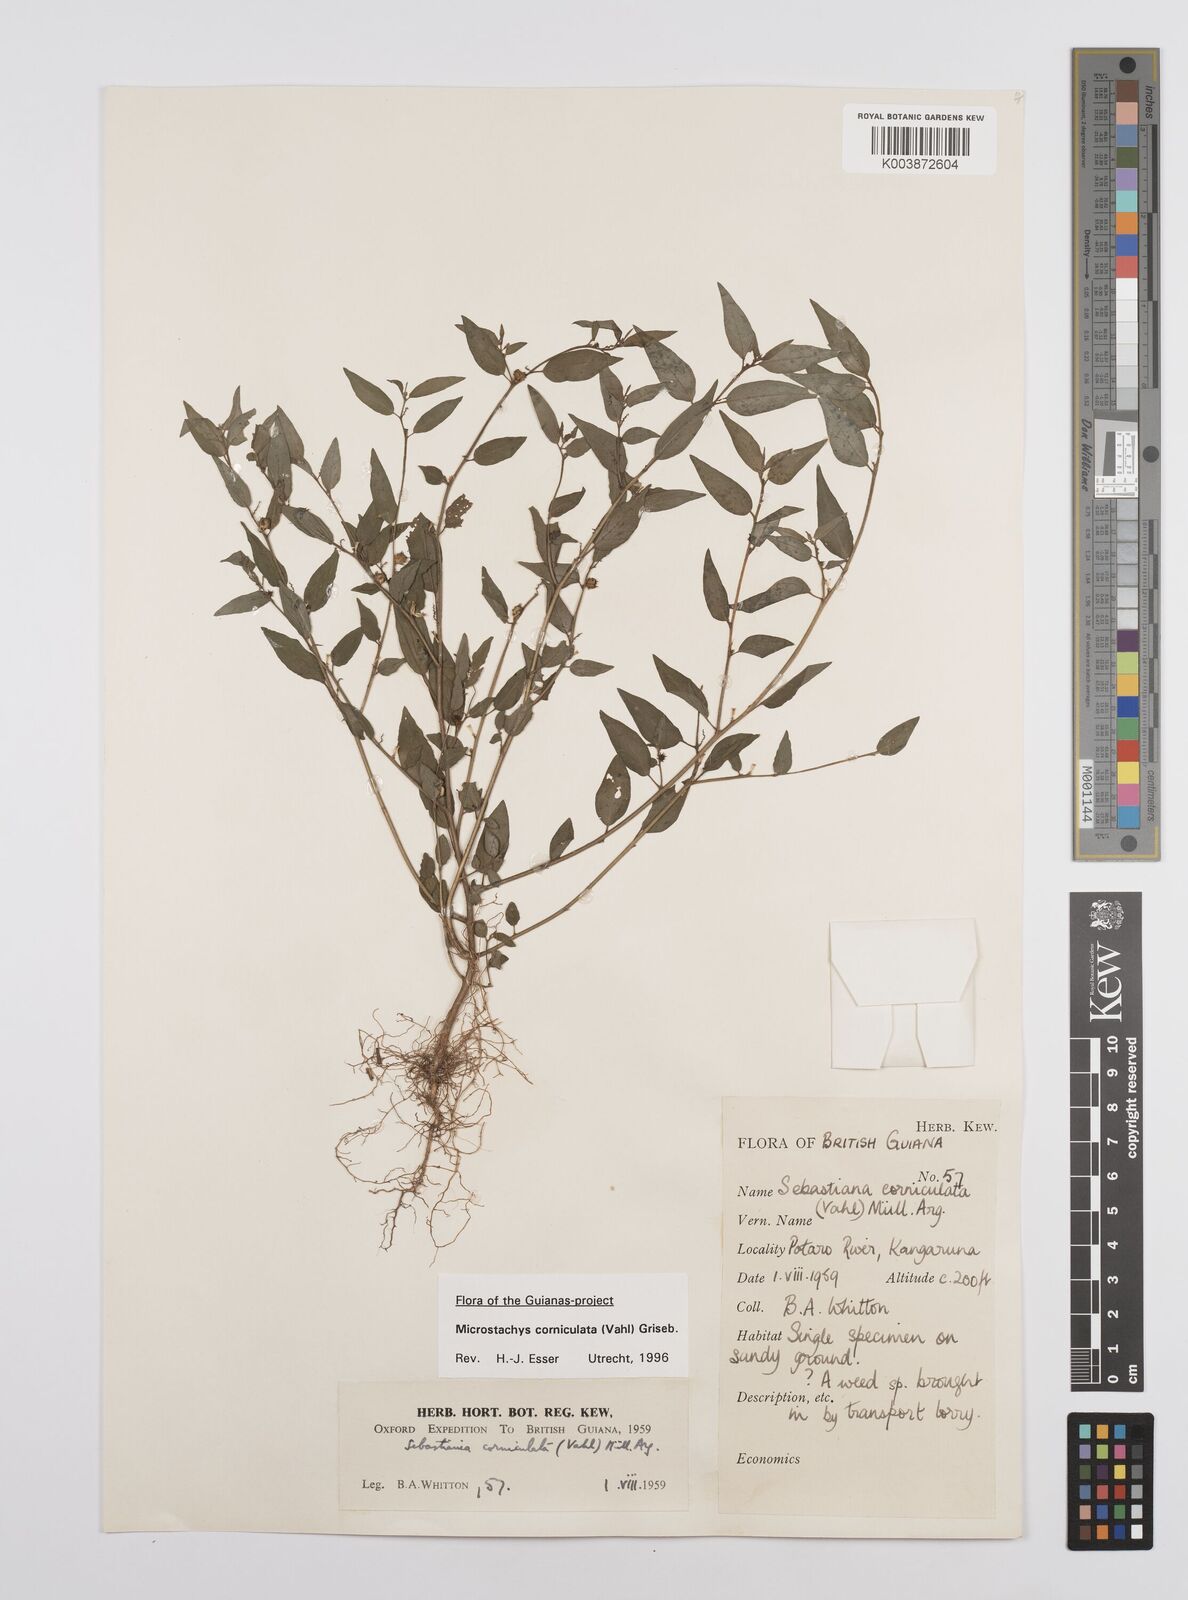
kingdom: Plantae
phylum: Tracheophyta
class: Magnoliopsida
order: Malpighiales
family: Euphorbiaceae
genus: Microstachys
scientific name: Microstachys corniculata
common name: Hato tejas
